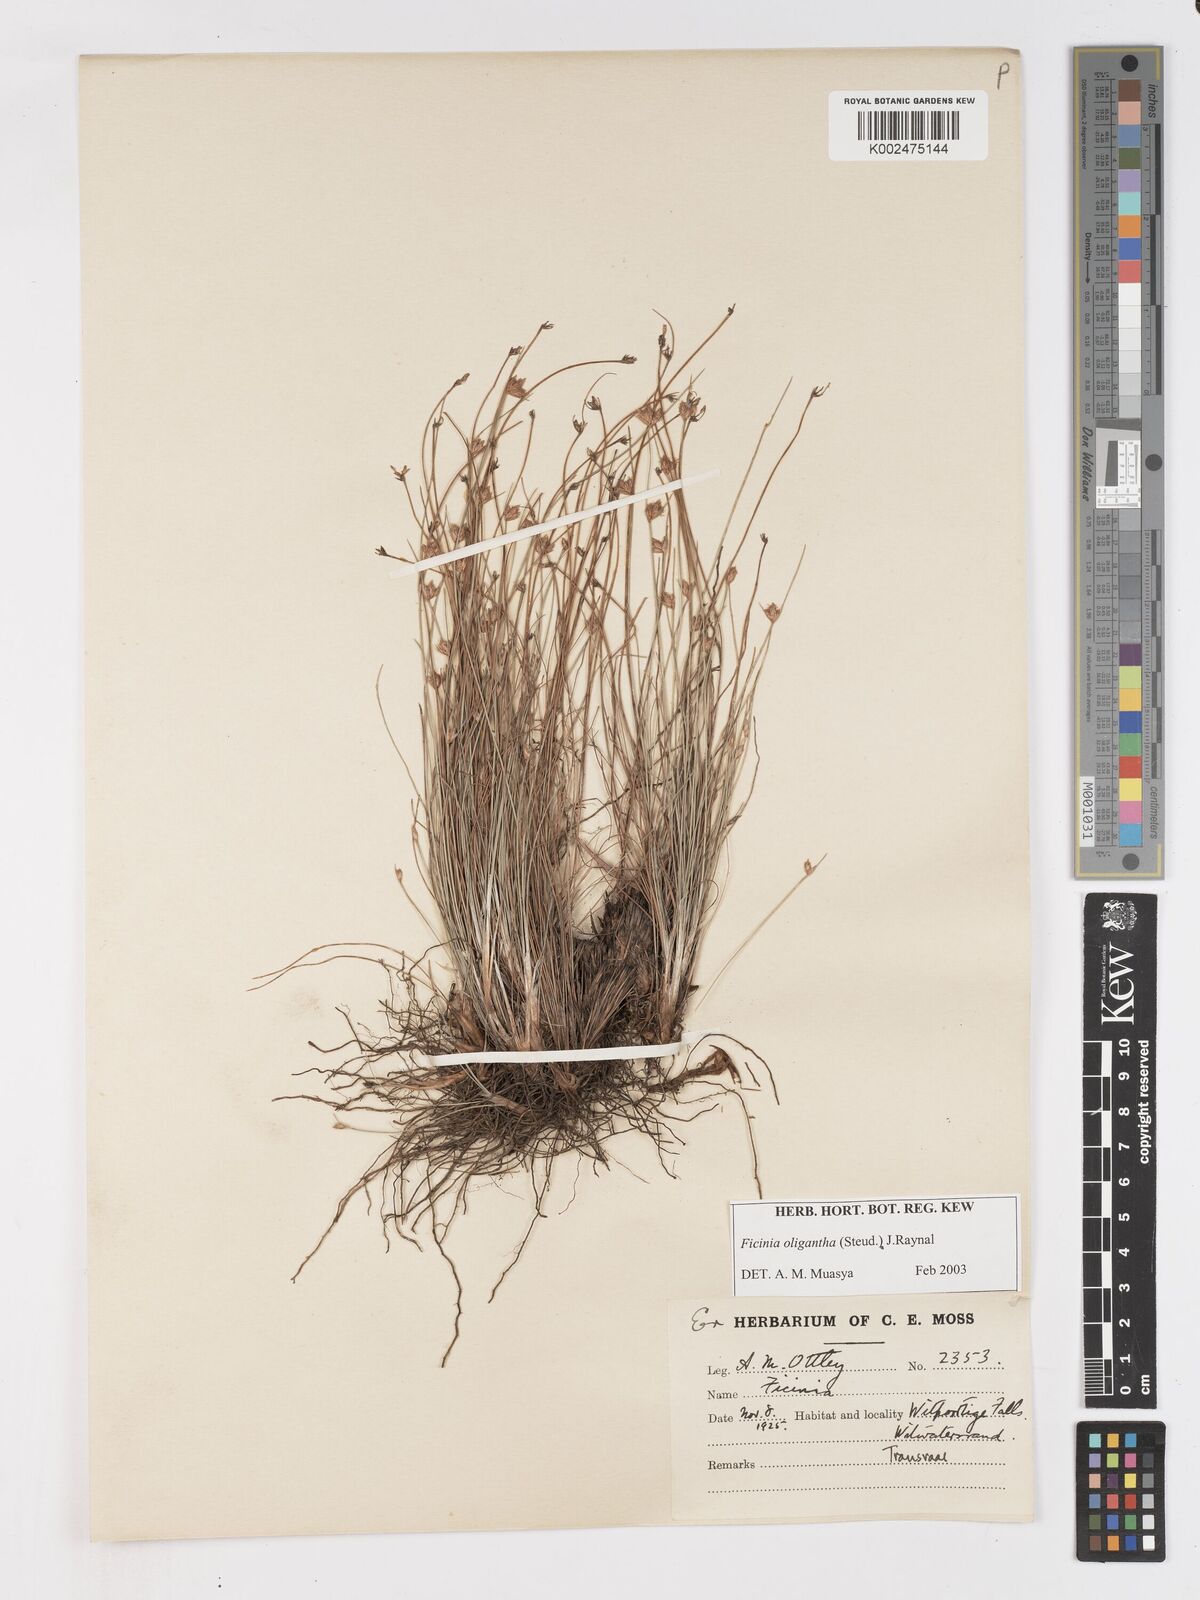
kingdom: Plantae
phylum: Tracheophyta
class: Liliopsida
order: Poales
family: Cyperaceae
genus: Ficinia
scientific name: Ficinia stolonifera
